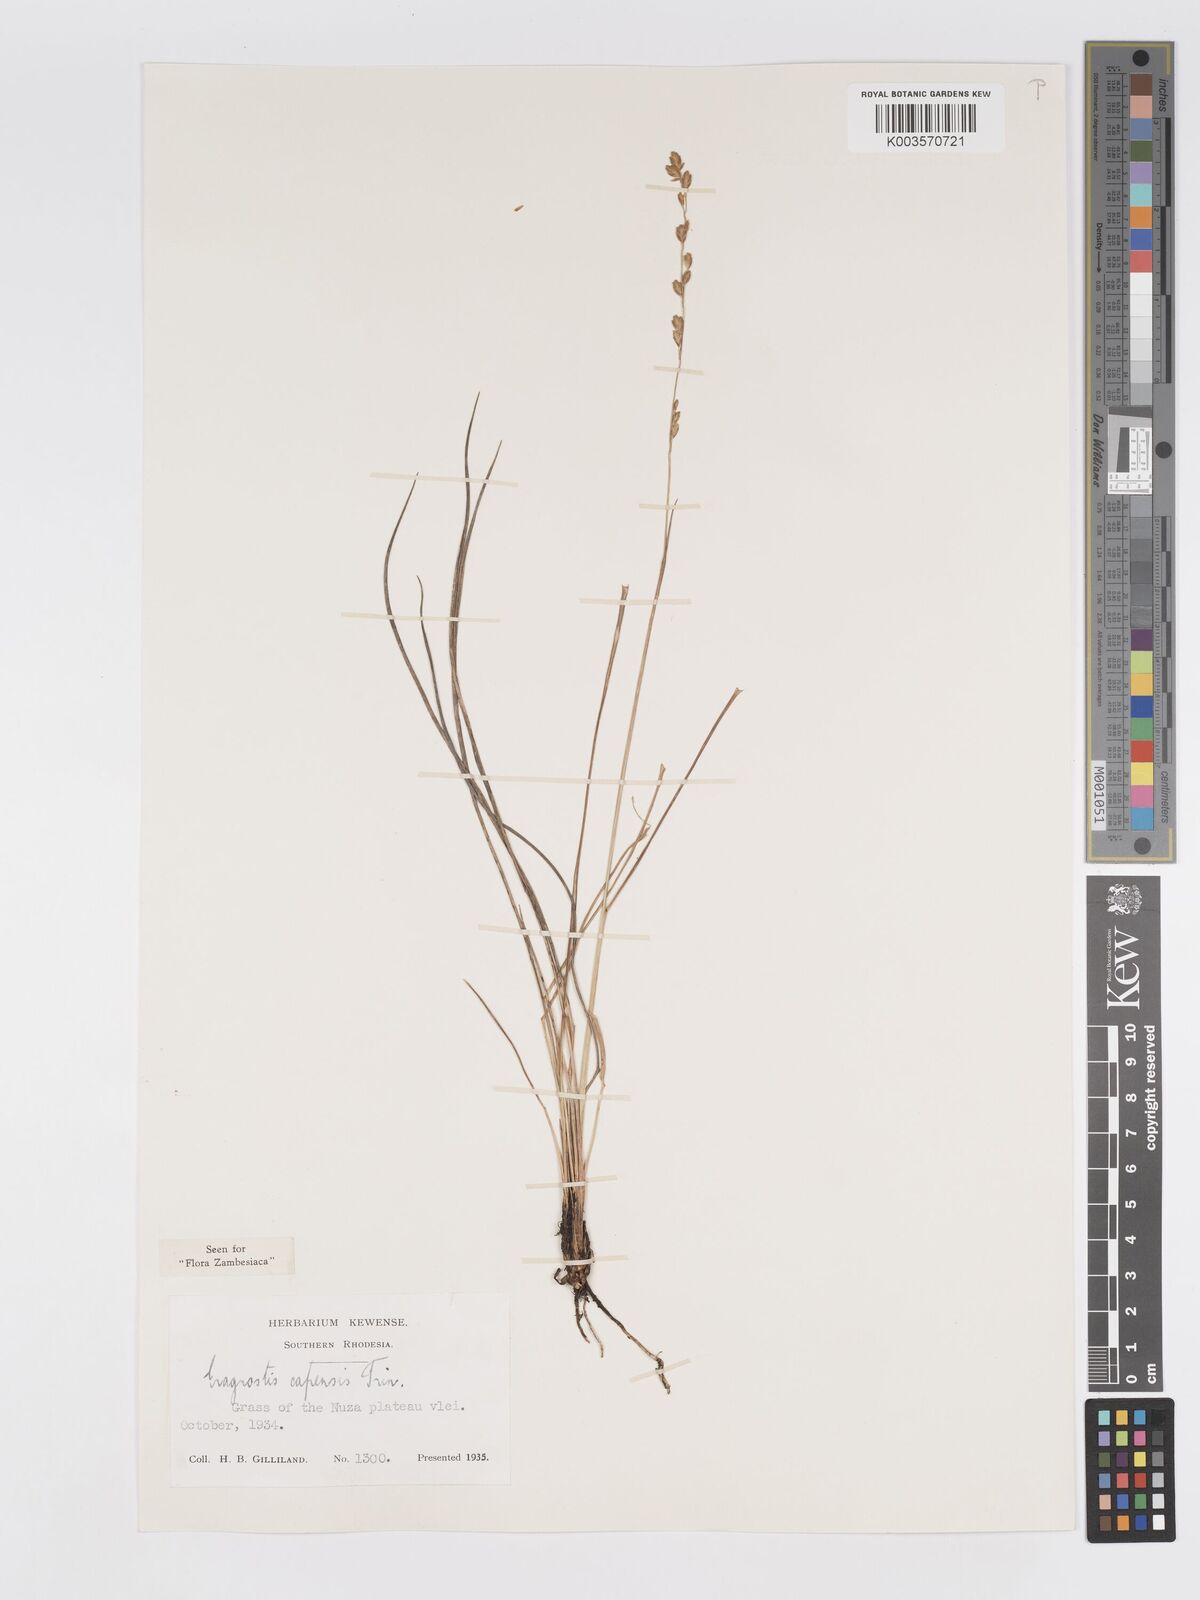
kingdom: Plantae
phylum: Tracheophyta
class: Liliopsida
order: Poales
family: Poaceae
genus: Eragrostis
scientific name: Eragrostis capensis
